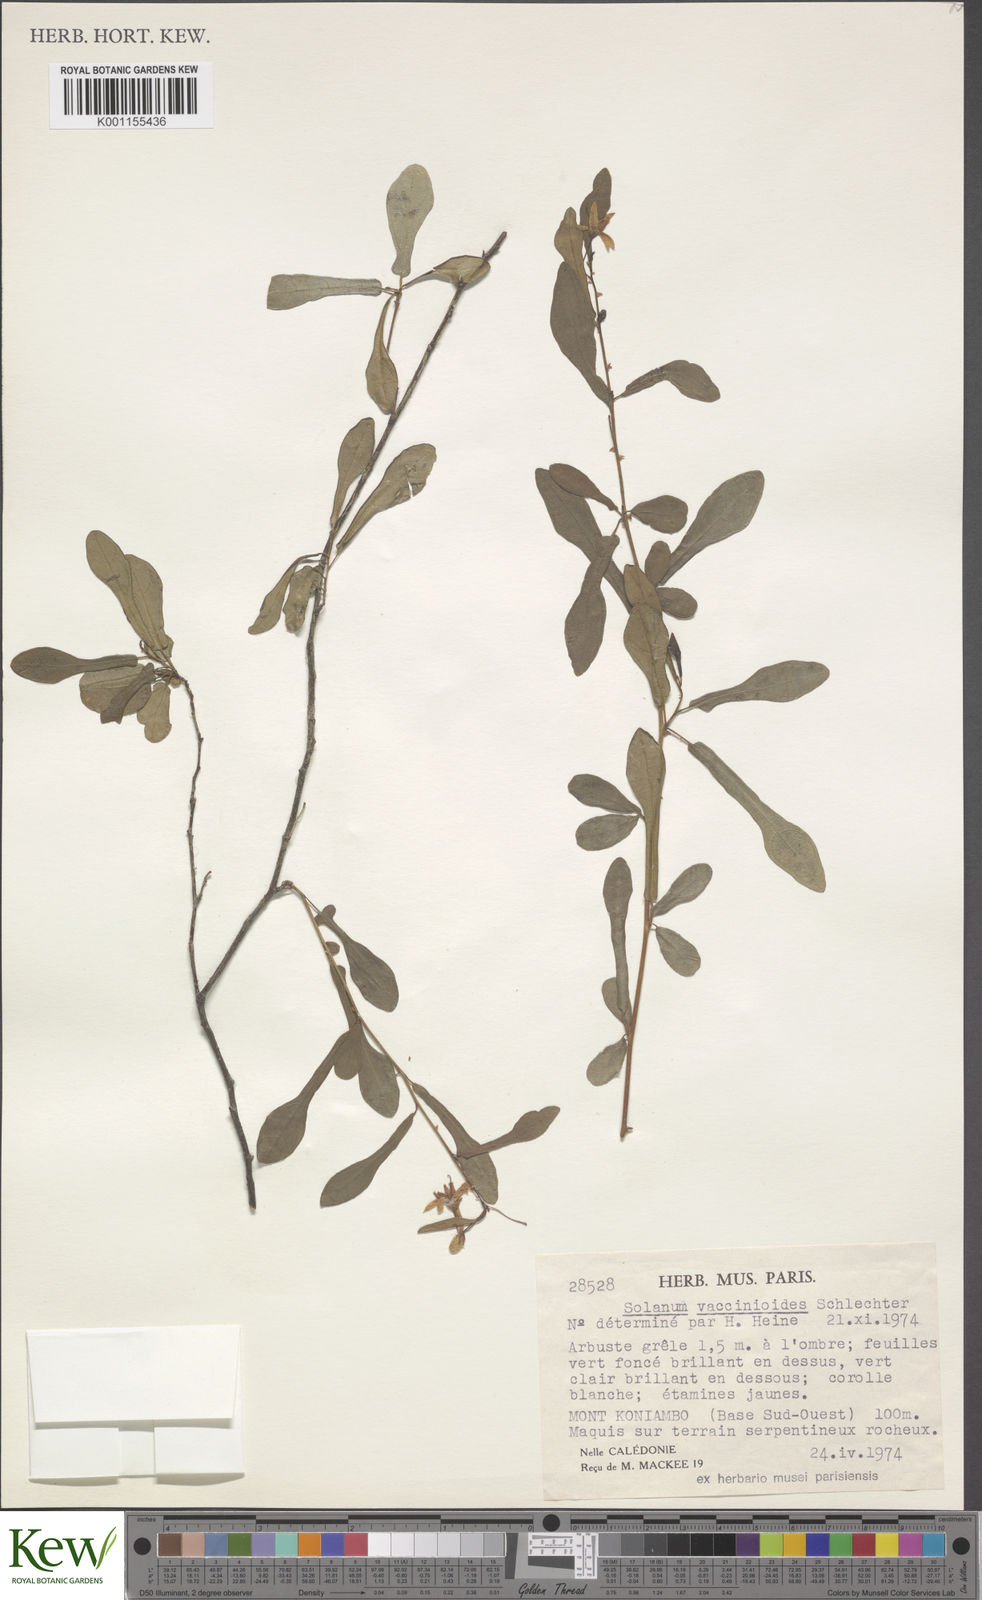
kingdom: Plantae
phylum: Tracheophyta
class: Magnoliopsida
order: Solanales
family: Solanaceae
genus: Solanum
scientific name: Solanum vaccinioides
